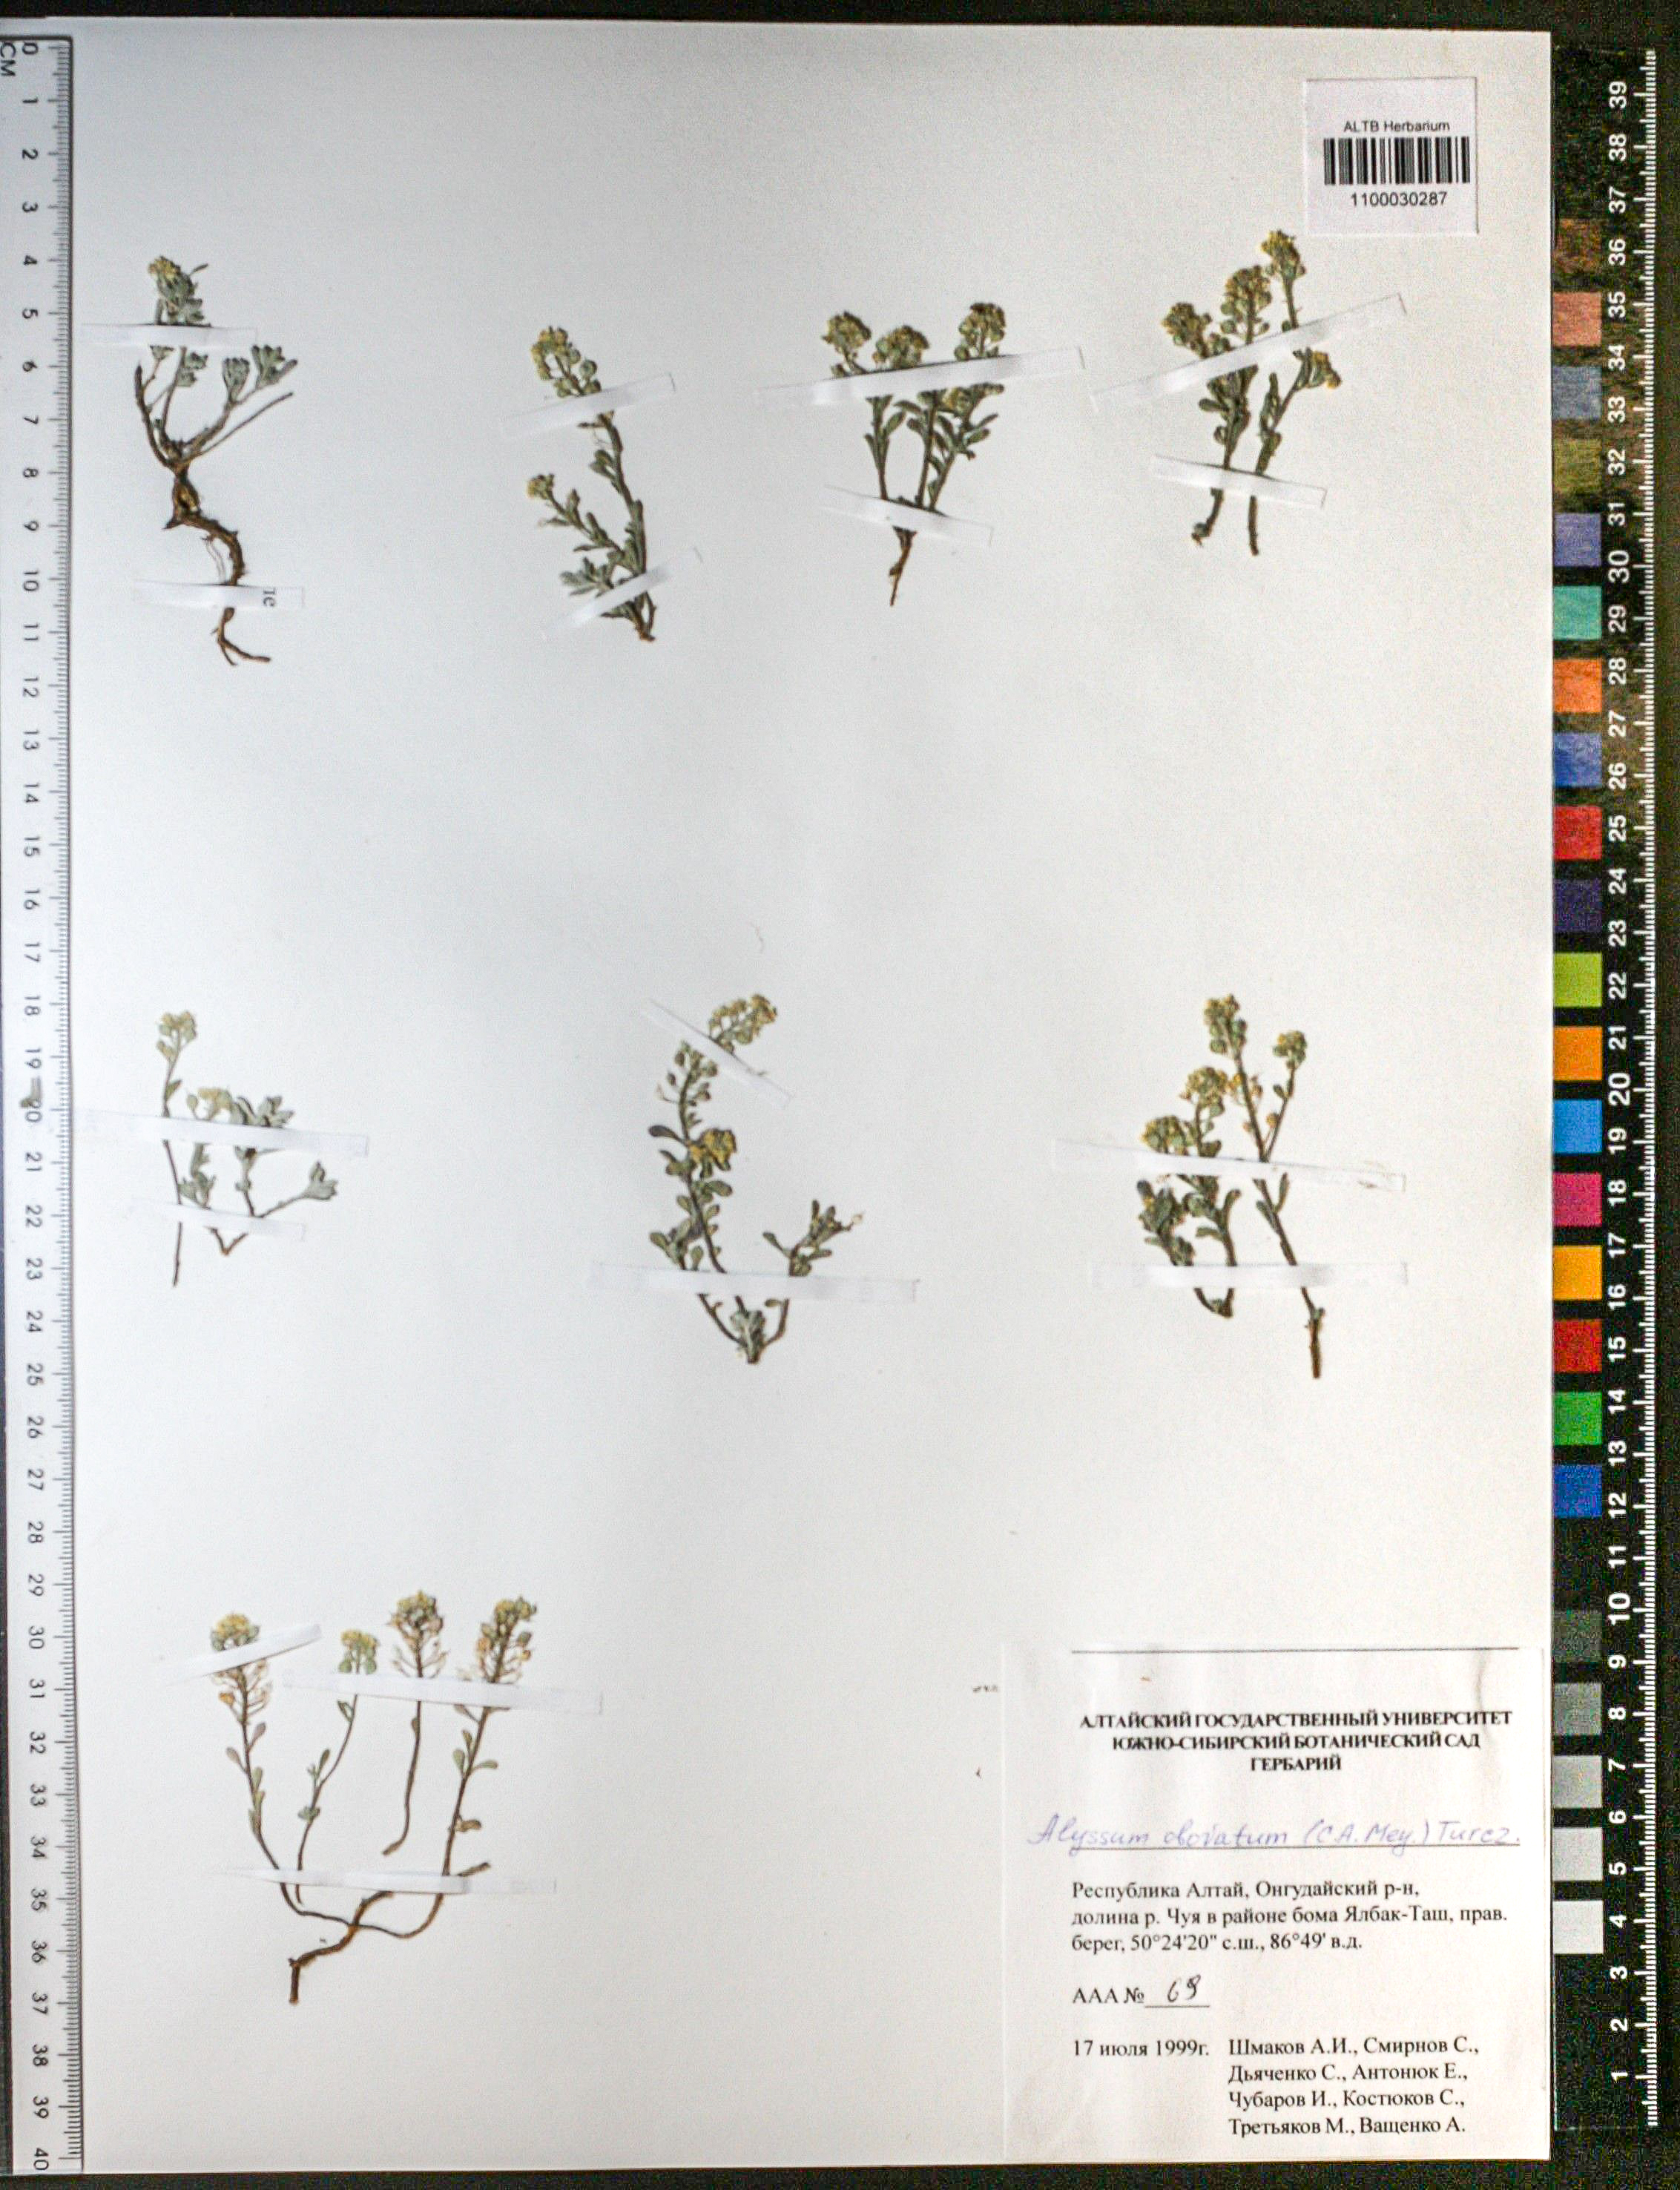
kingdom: Plantae
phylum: Tracheophyta
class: Magnoliopsida
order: Brassicales
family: Brassicaceae
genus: Odontarrhena
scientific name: Odontarrhena obovata
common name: American alyssum
